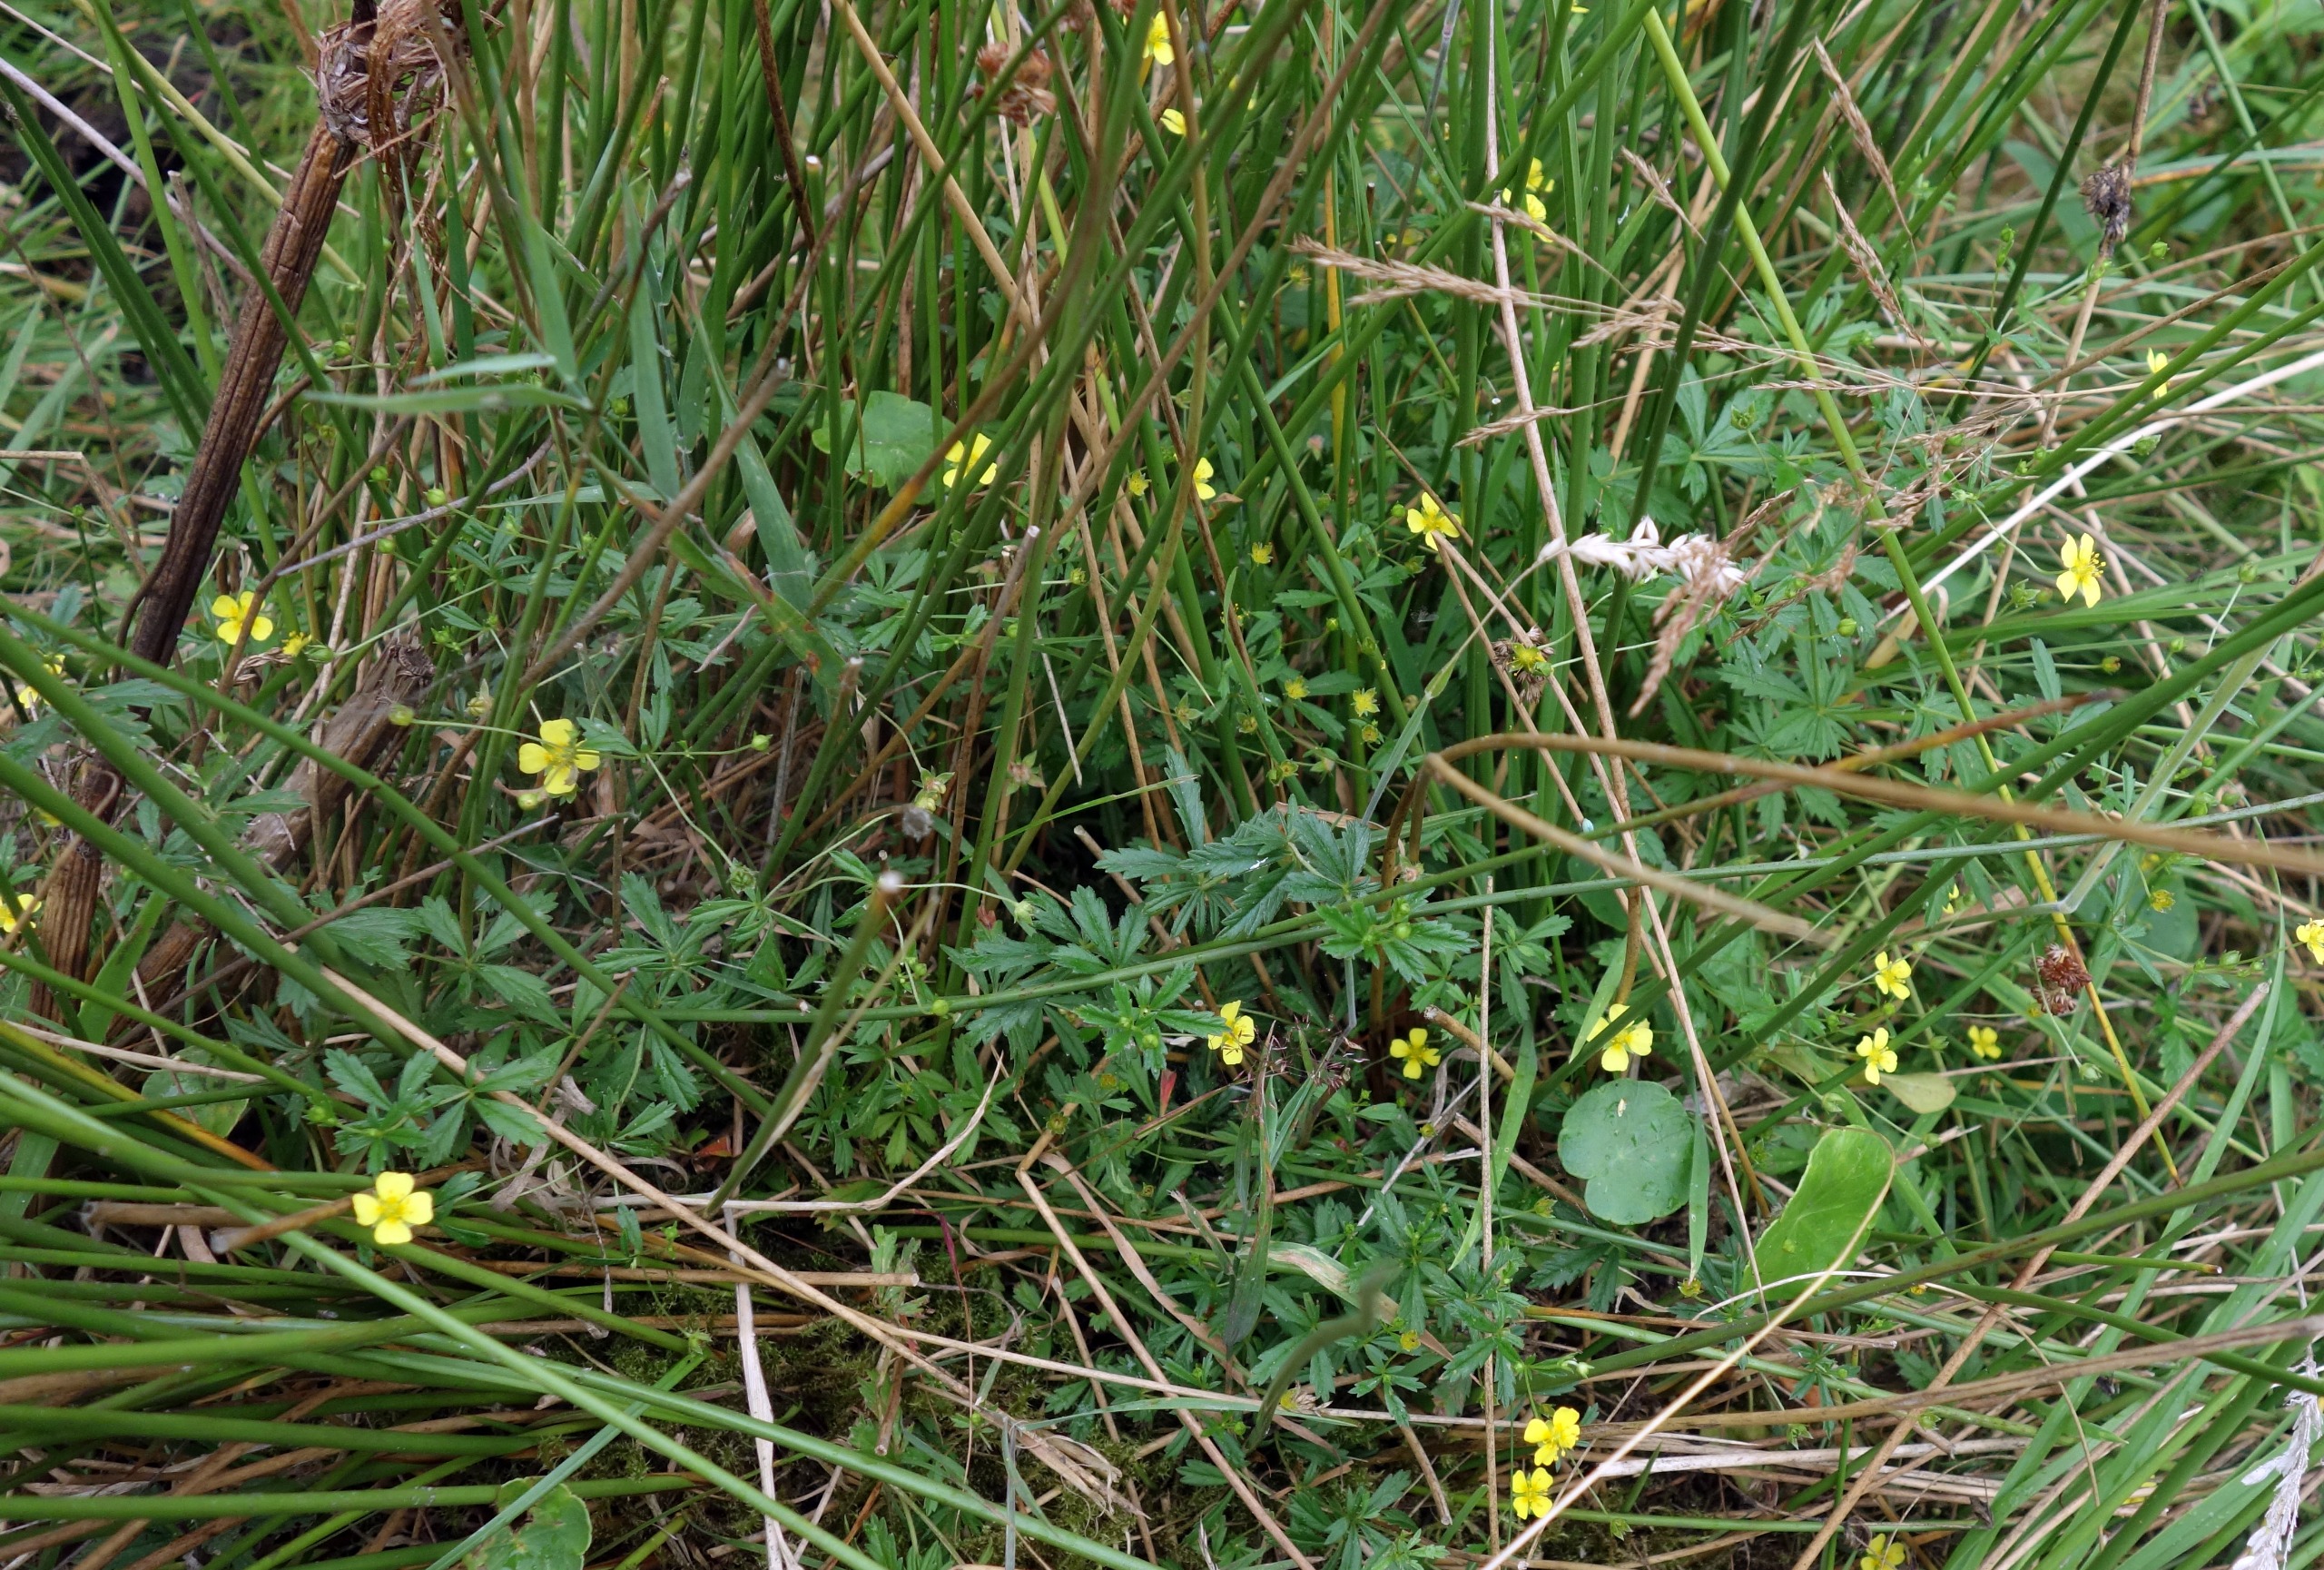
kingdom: Plantae
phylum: Tracheophyta
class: Magnoliopsida
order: Rosales
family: Rosaceae
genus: Potentilla
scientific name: Potentilla erecta
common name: Tormentil
